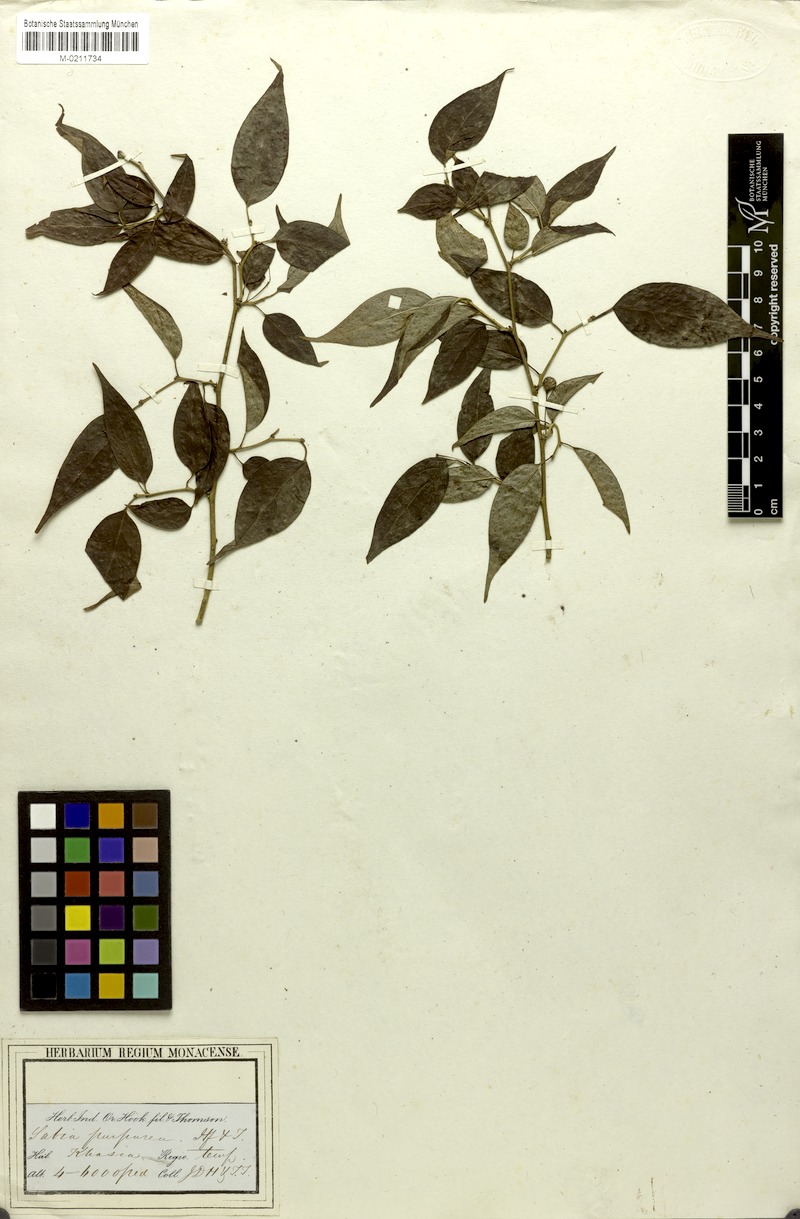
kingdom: Plantae
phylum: Tracheophyta
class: Magnoliopsida
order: Proteales
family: Sabiaceae
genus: Sabia
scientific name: Sabia purpurea
